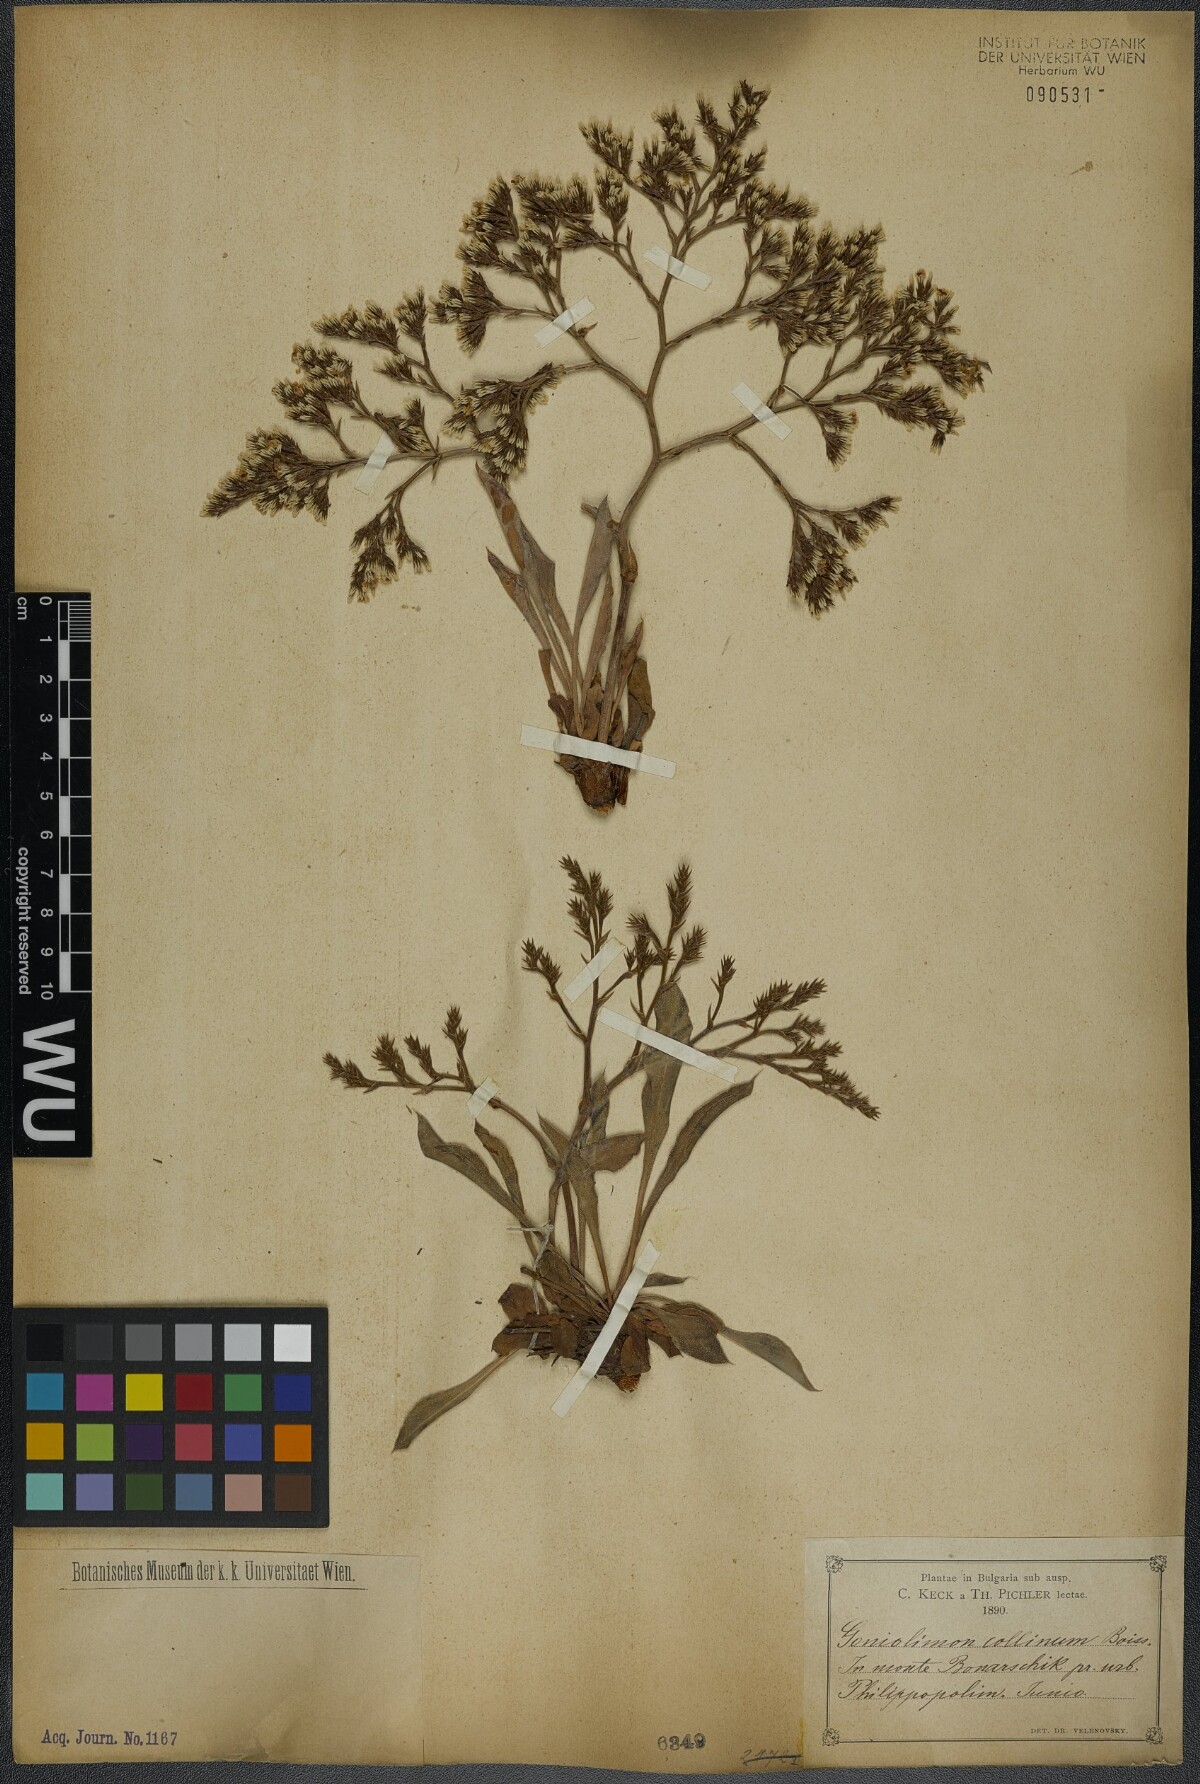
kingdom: Plantae
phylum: Tracheophyta
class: Magnoliopsida
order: Caryophyllales
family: Plumbaginaceae
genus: Goniolimon
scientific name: Goniolimon incanum
